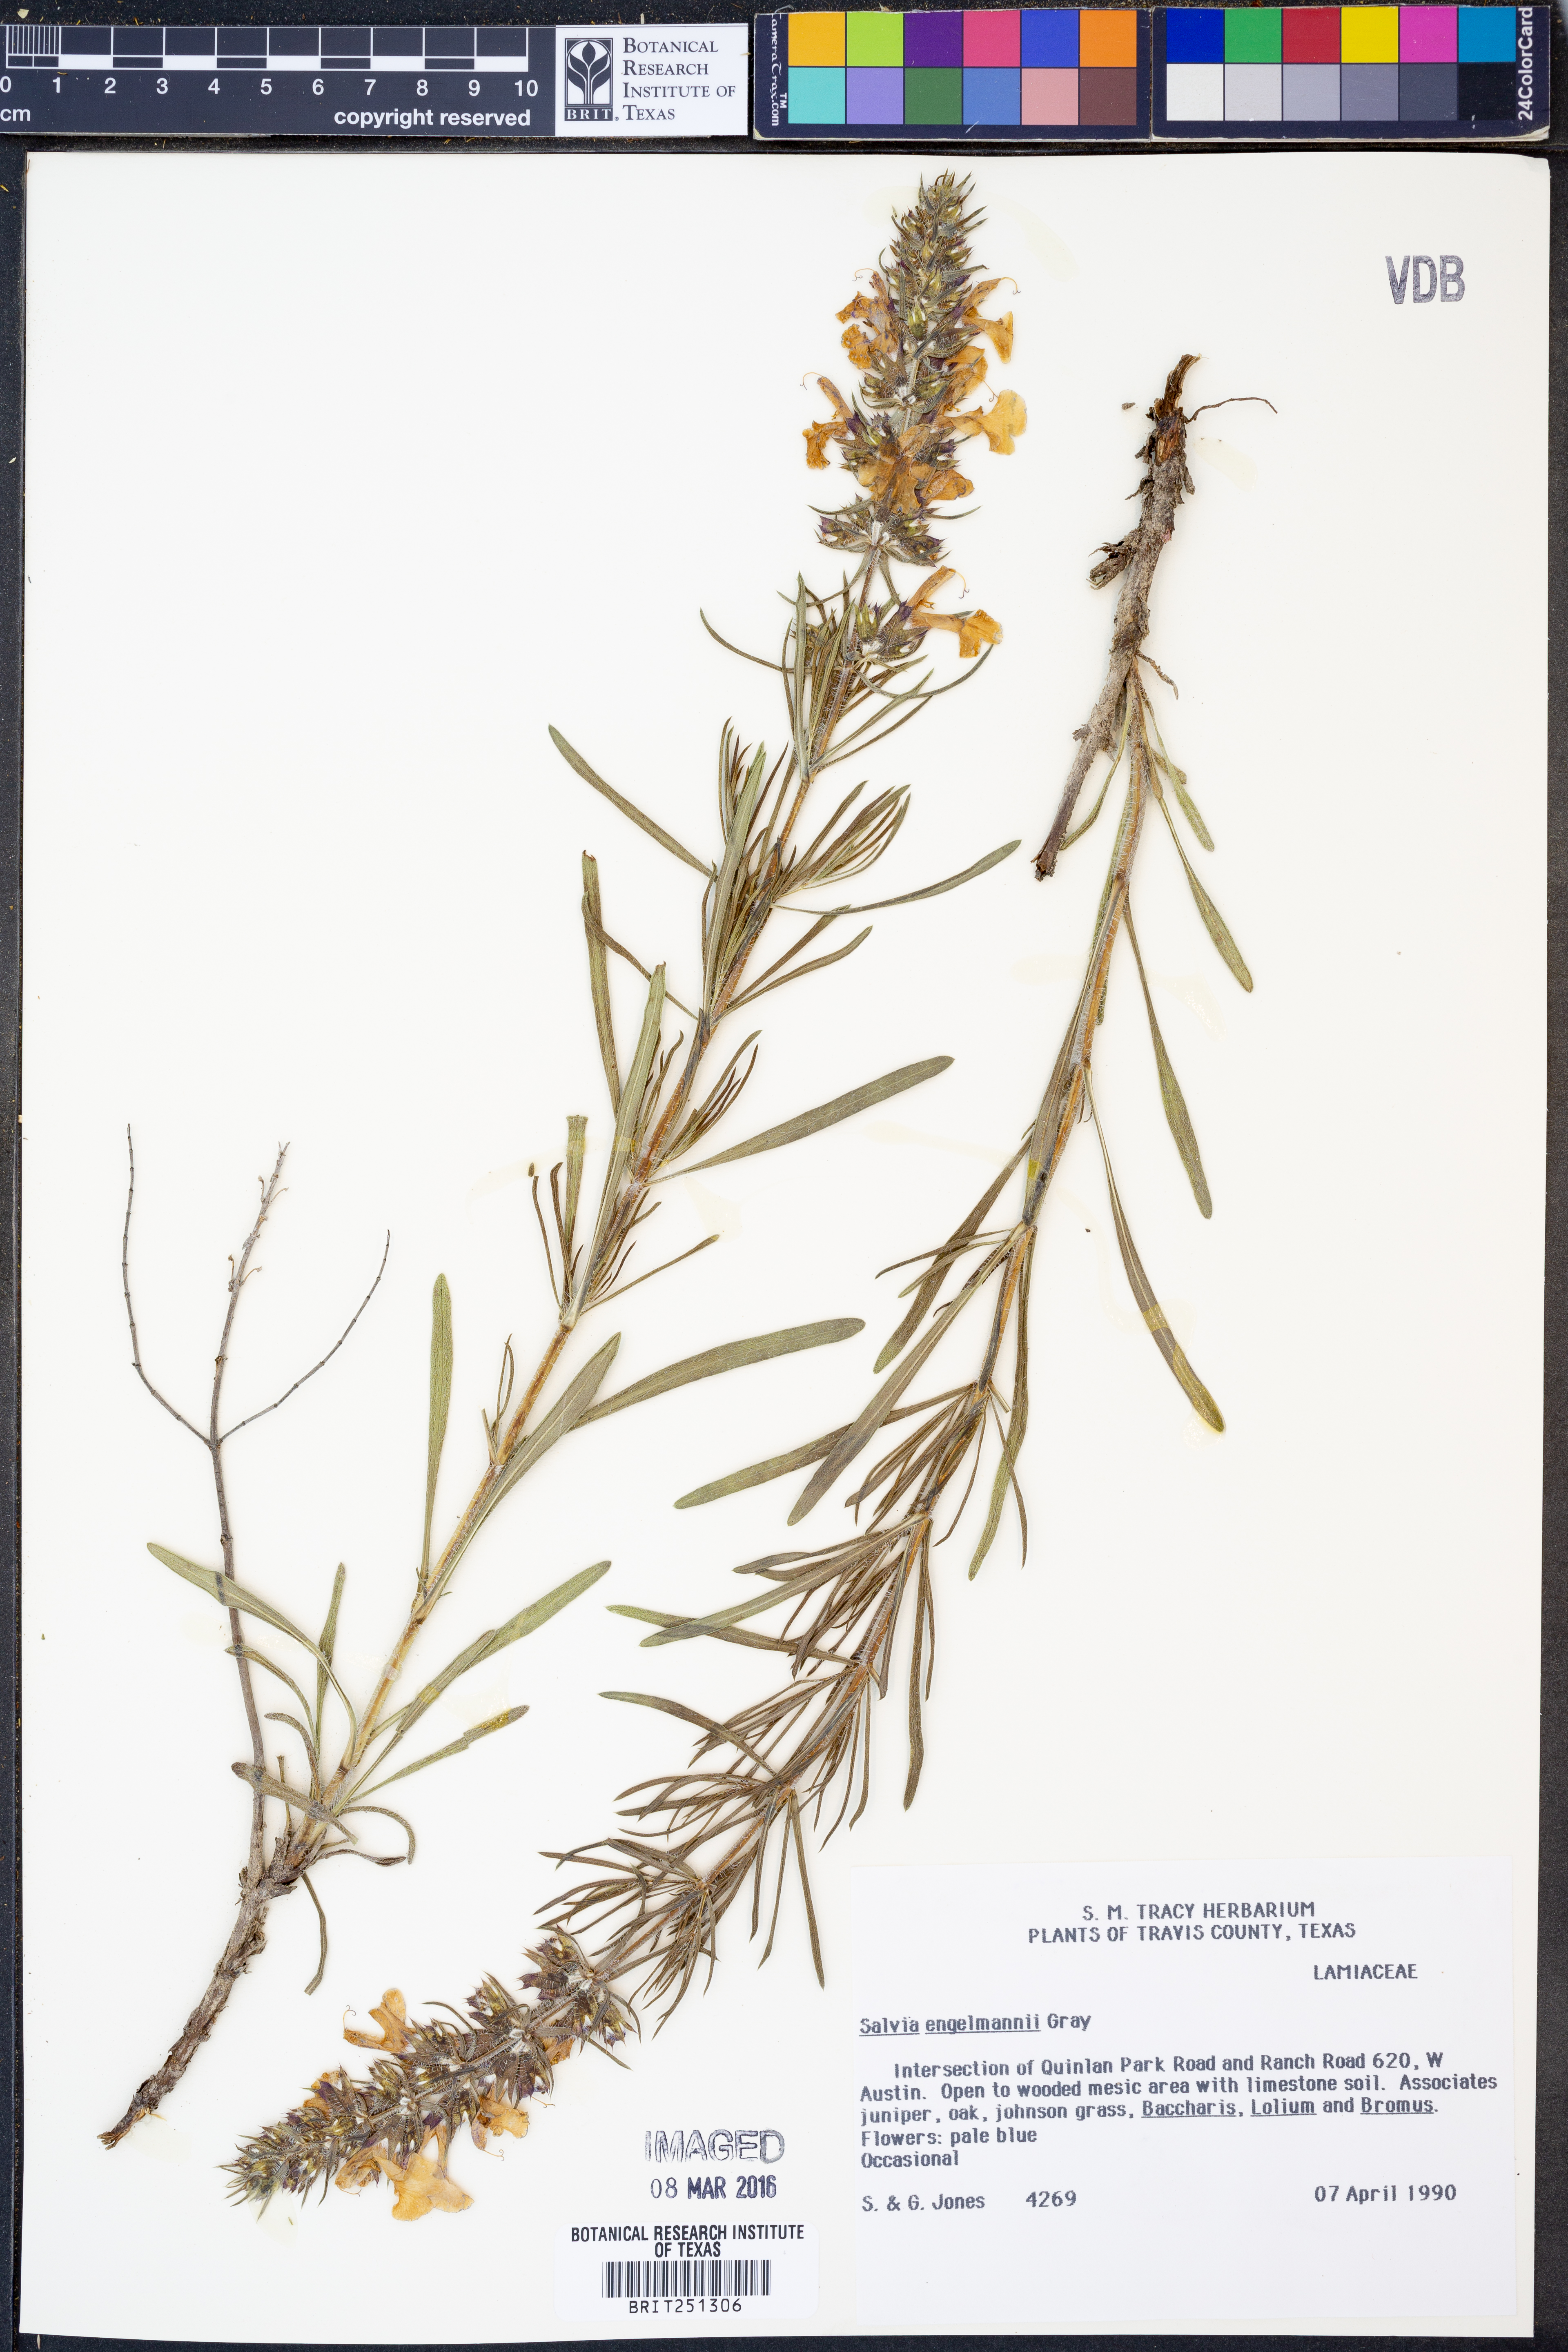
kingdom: Plantae
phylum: Tracheophyta
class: Magnoliopsida
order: Lamiales
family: Lamiaceae
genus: Salvia
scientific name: Salvia engelmannii
